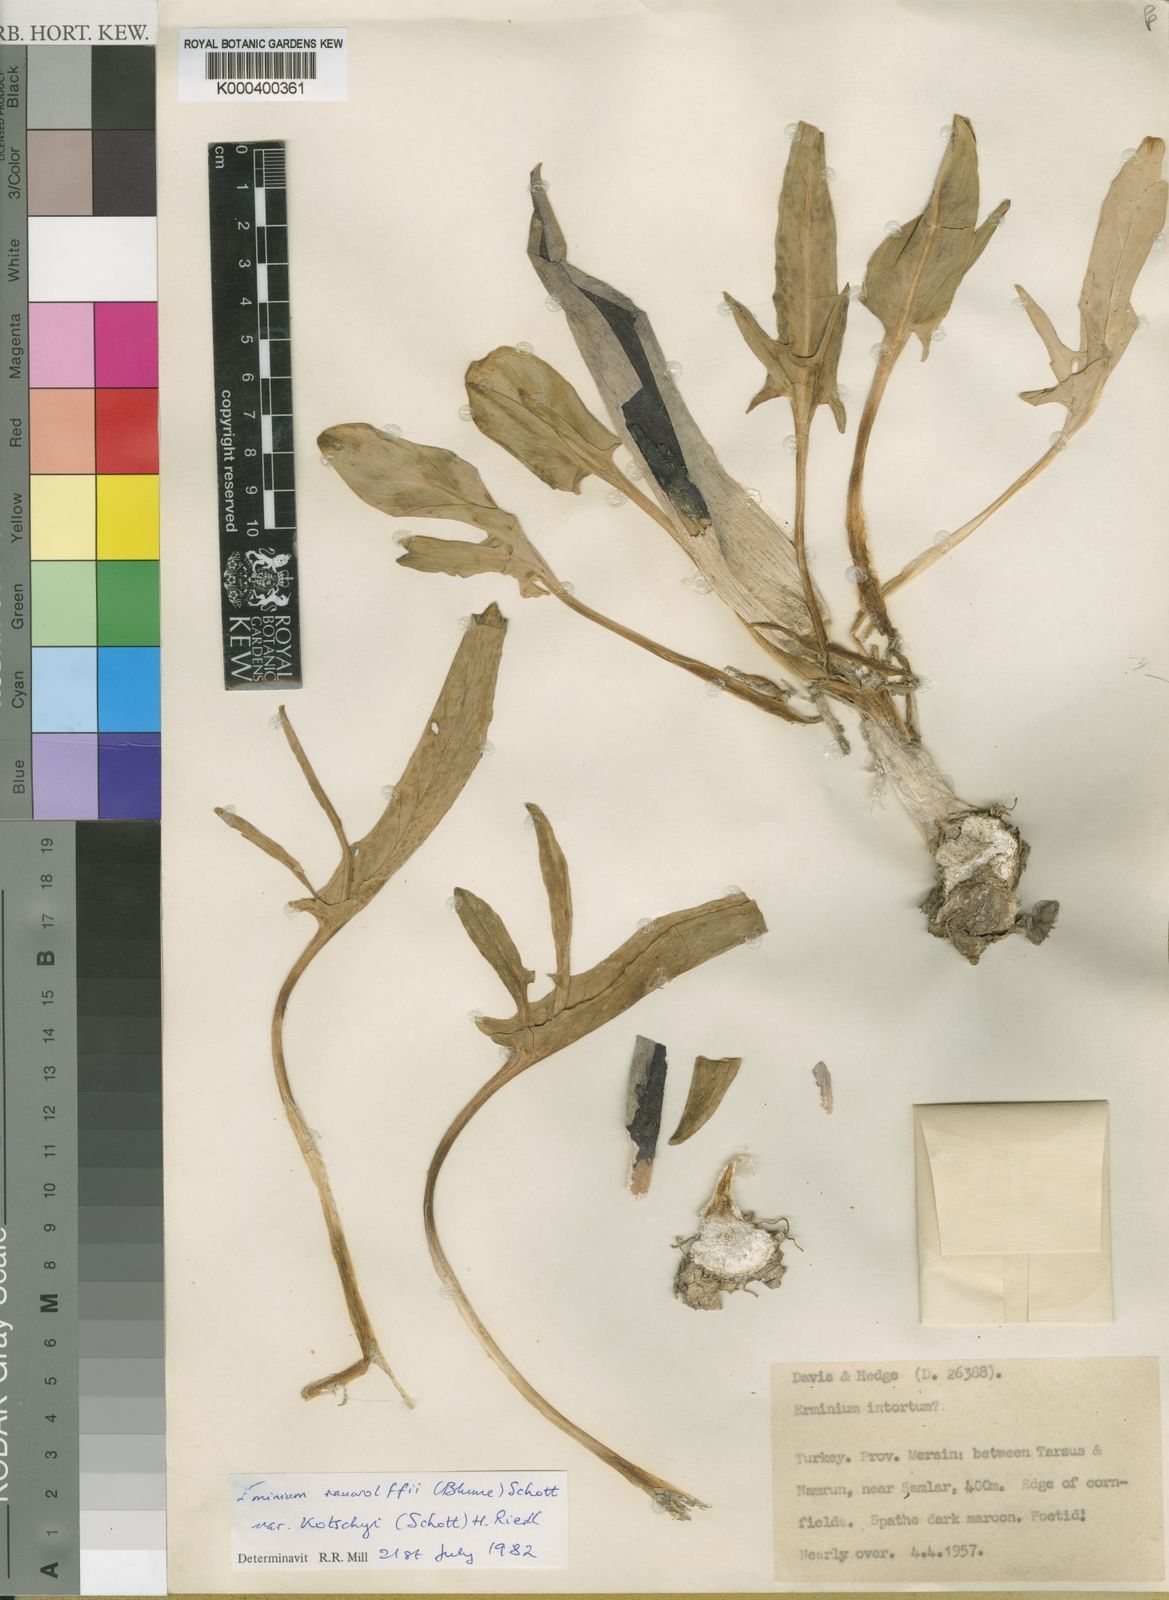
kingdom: Plantae
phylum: Tracheophyta
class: Liliopsida
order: Alismatales
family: Araceae
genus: Eminium
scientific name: Eminium rauwolffii
